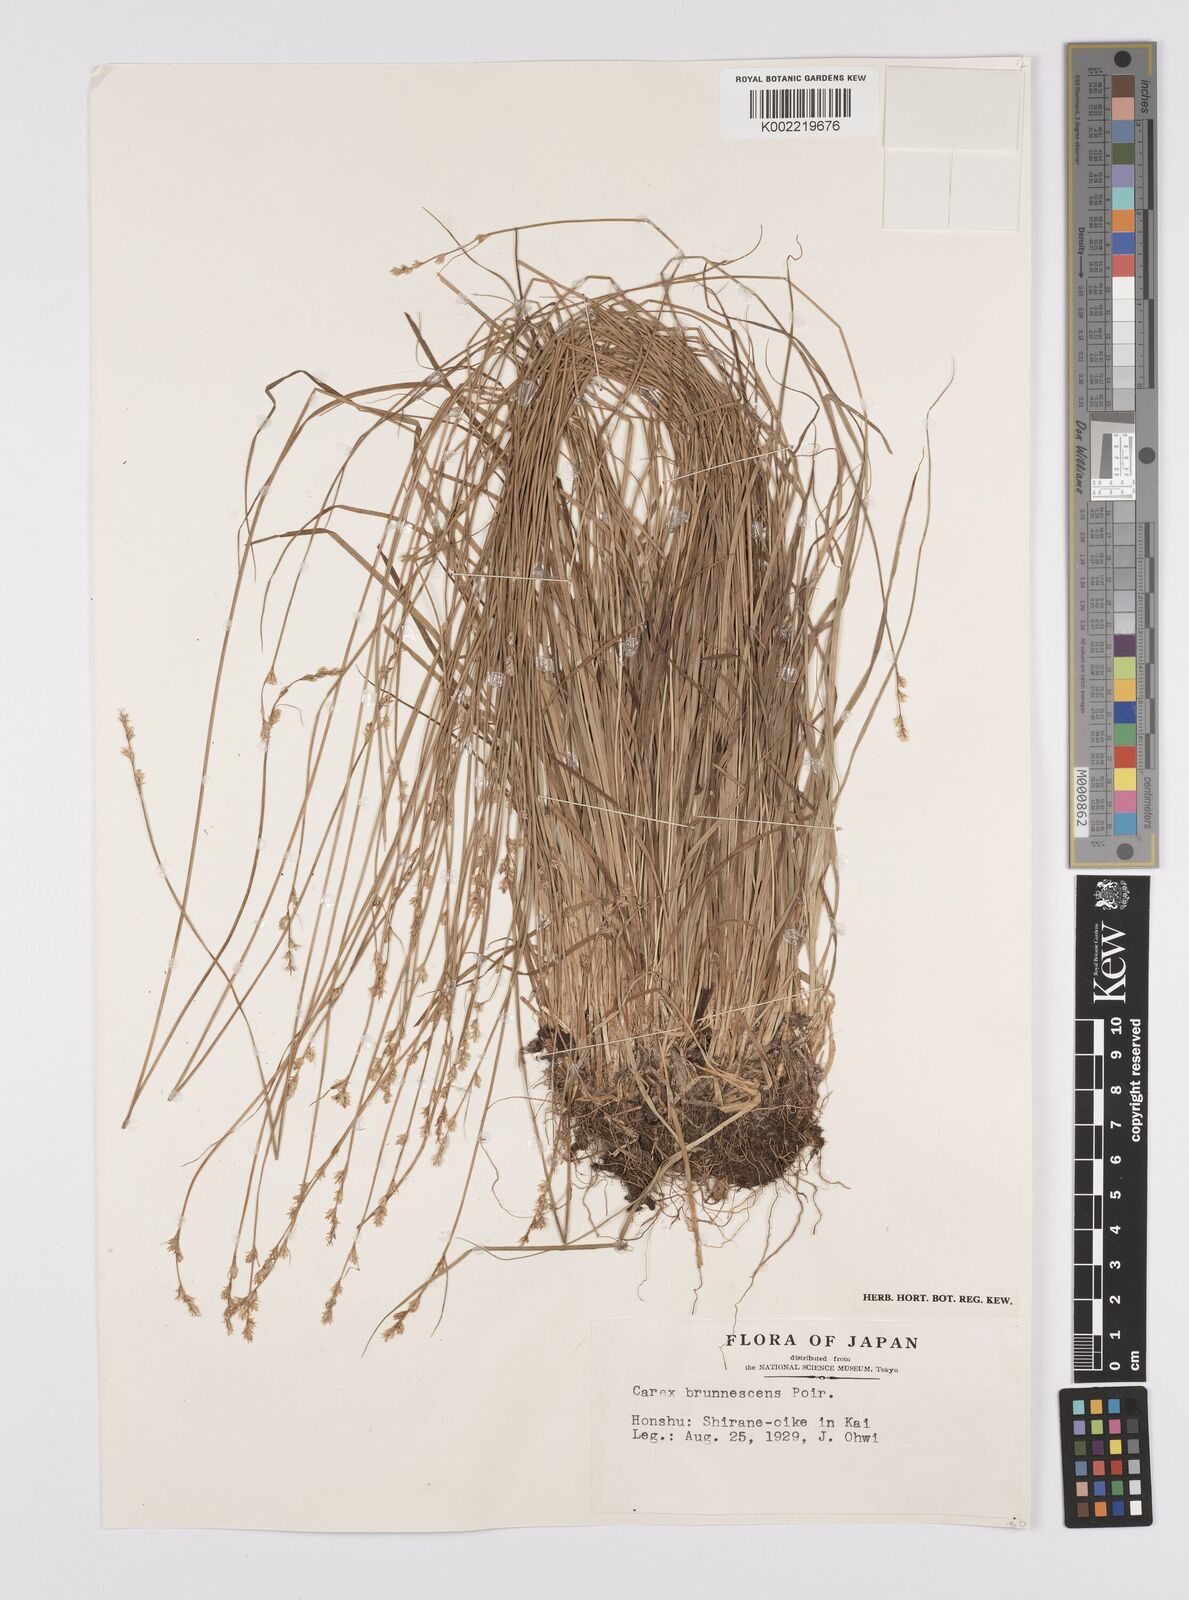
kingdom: Plantae
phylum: Tracheophyta
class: Liliopsida
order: Poales
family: Cyperaceae
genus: Carex
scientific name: Carex brunnescens
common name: Brown sedge
